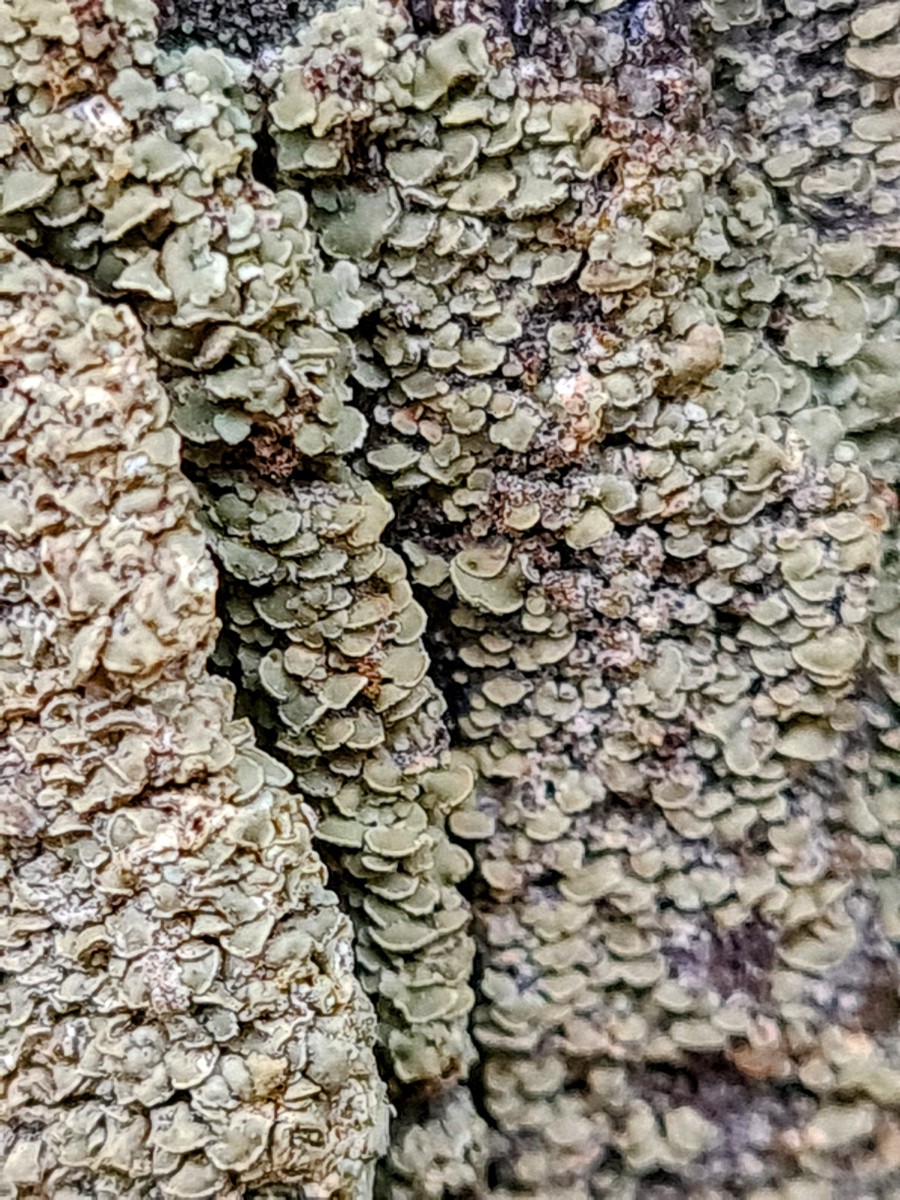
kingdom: Fungi
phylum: Ascomycota
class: Lecanoromycetes
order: Umbilicariales
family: Ophioparmaceae
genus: Hypocenomyce
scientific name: Hypocenomyce scalaris
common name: småskællet muslinglav
